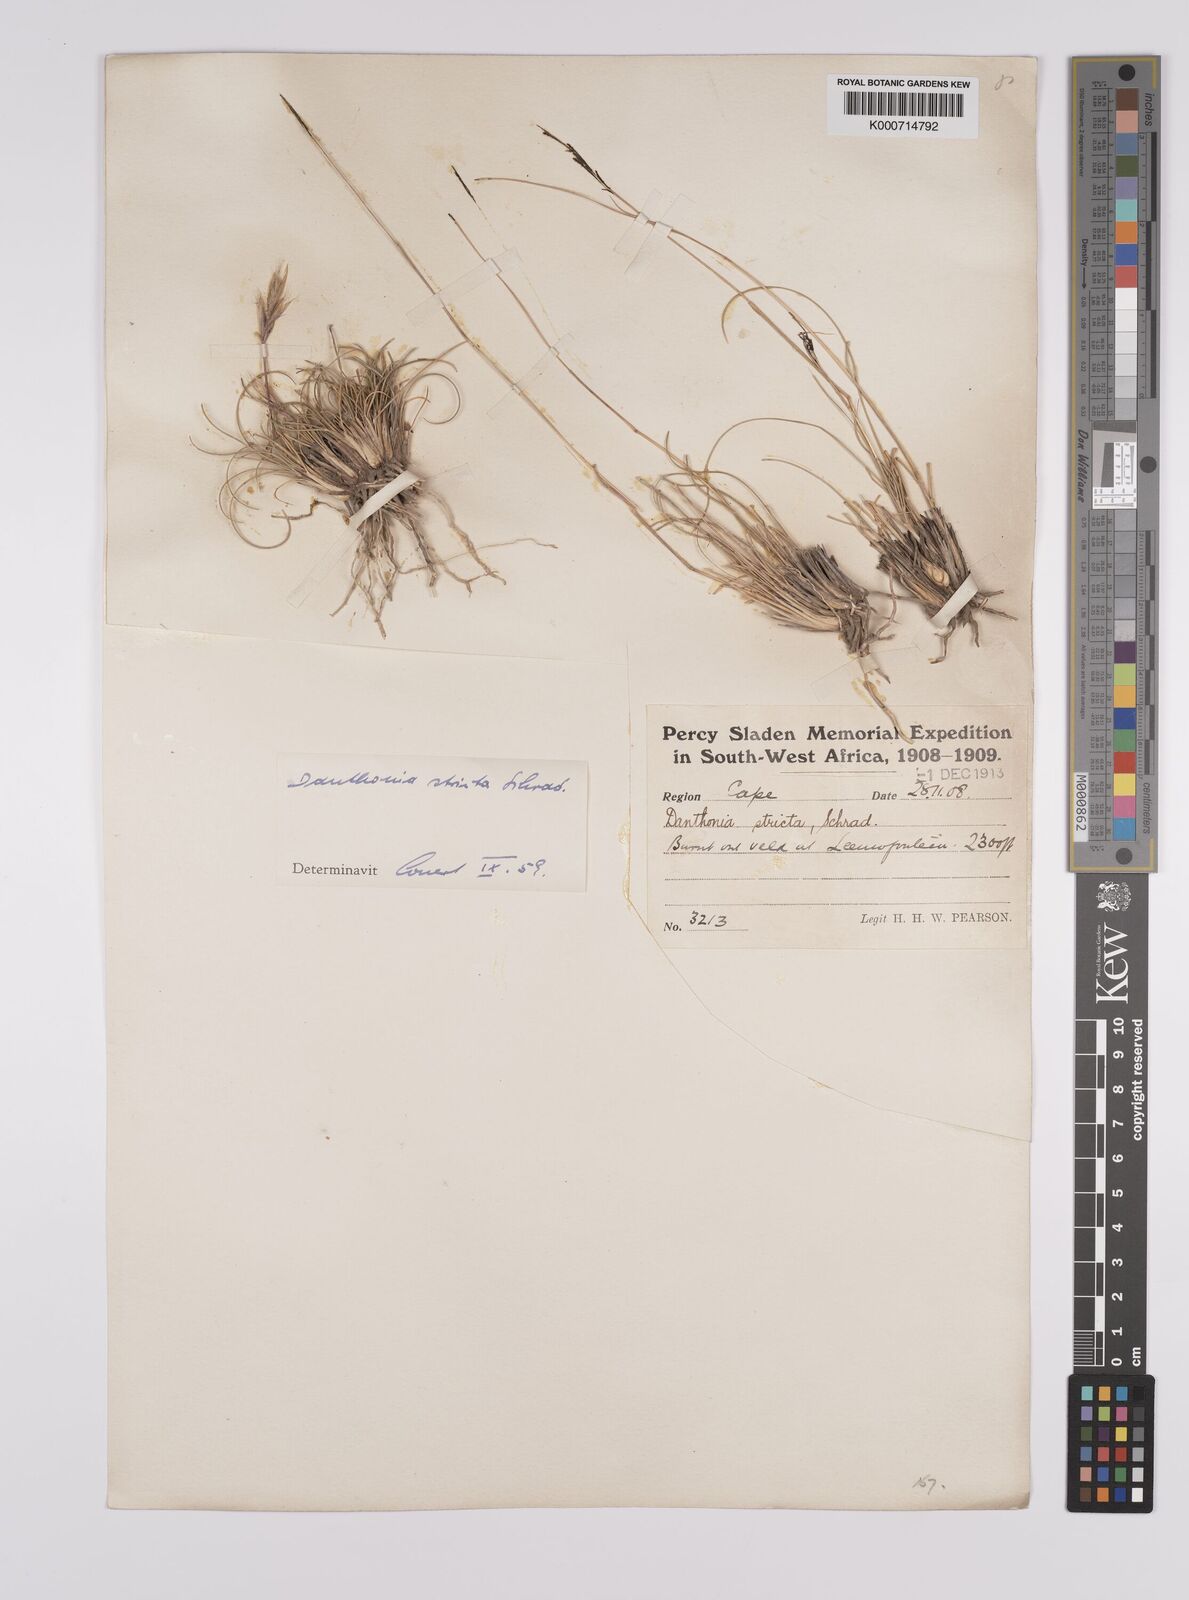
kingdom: Plantae
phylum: Tracheophyta
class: Liliopsida
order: Poales
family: Poaceae
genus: Rytidosperma
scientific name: Rytidosperma
